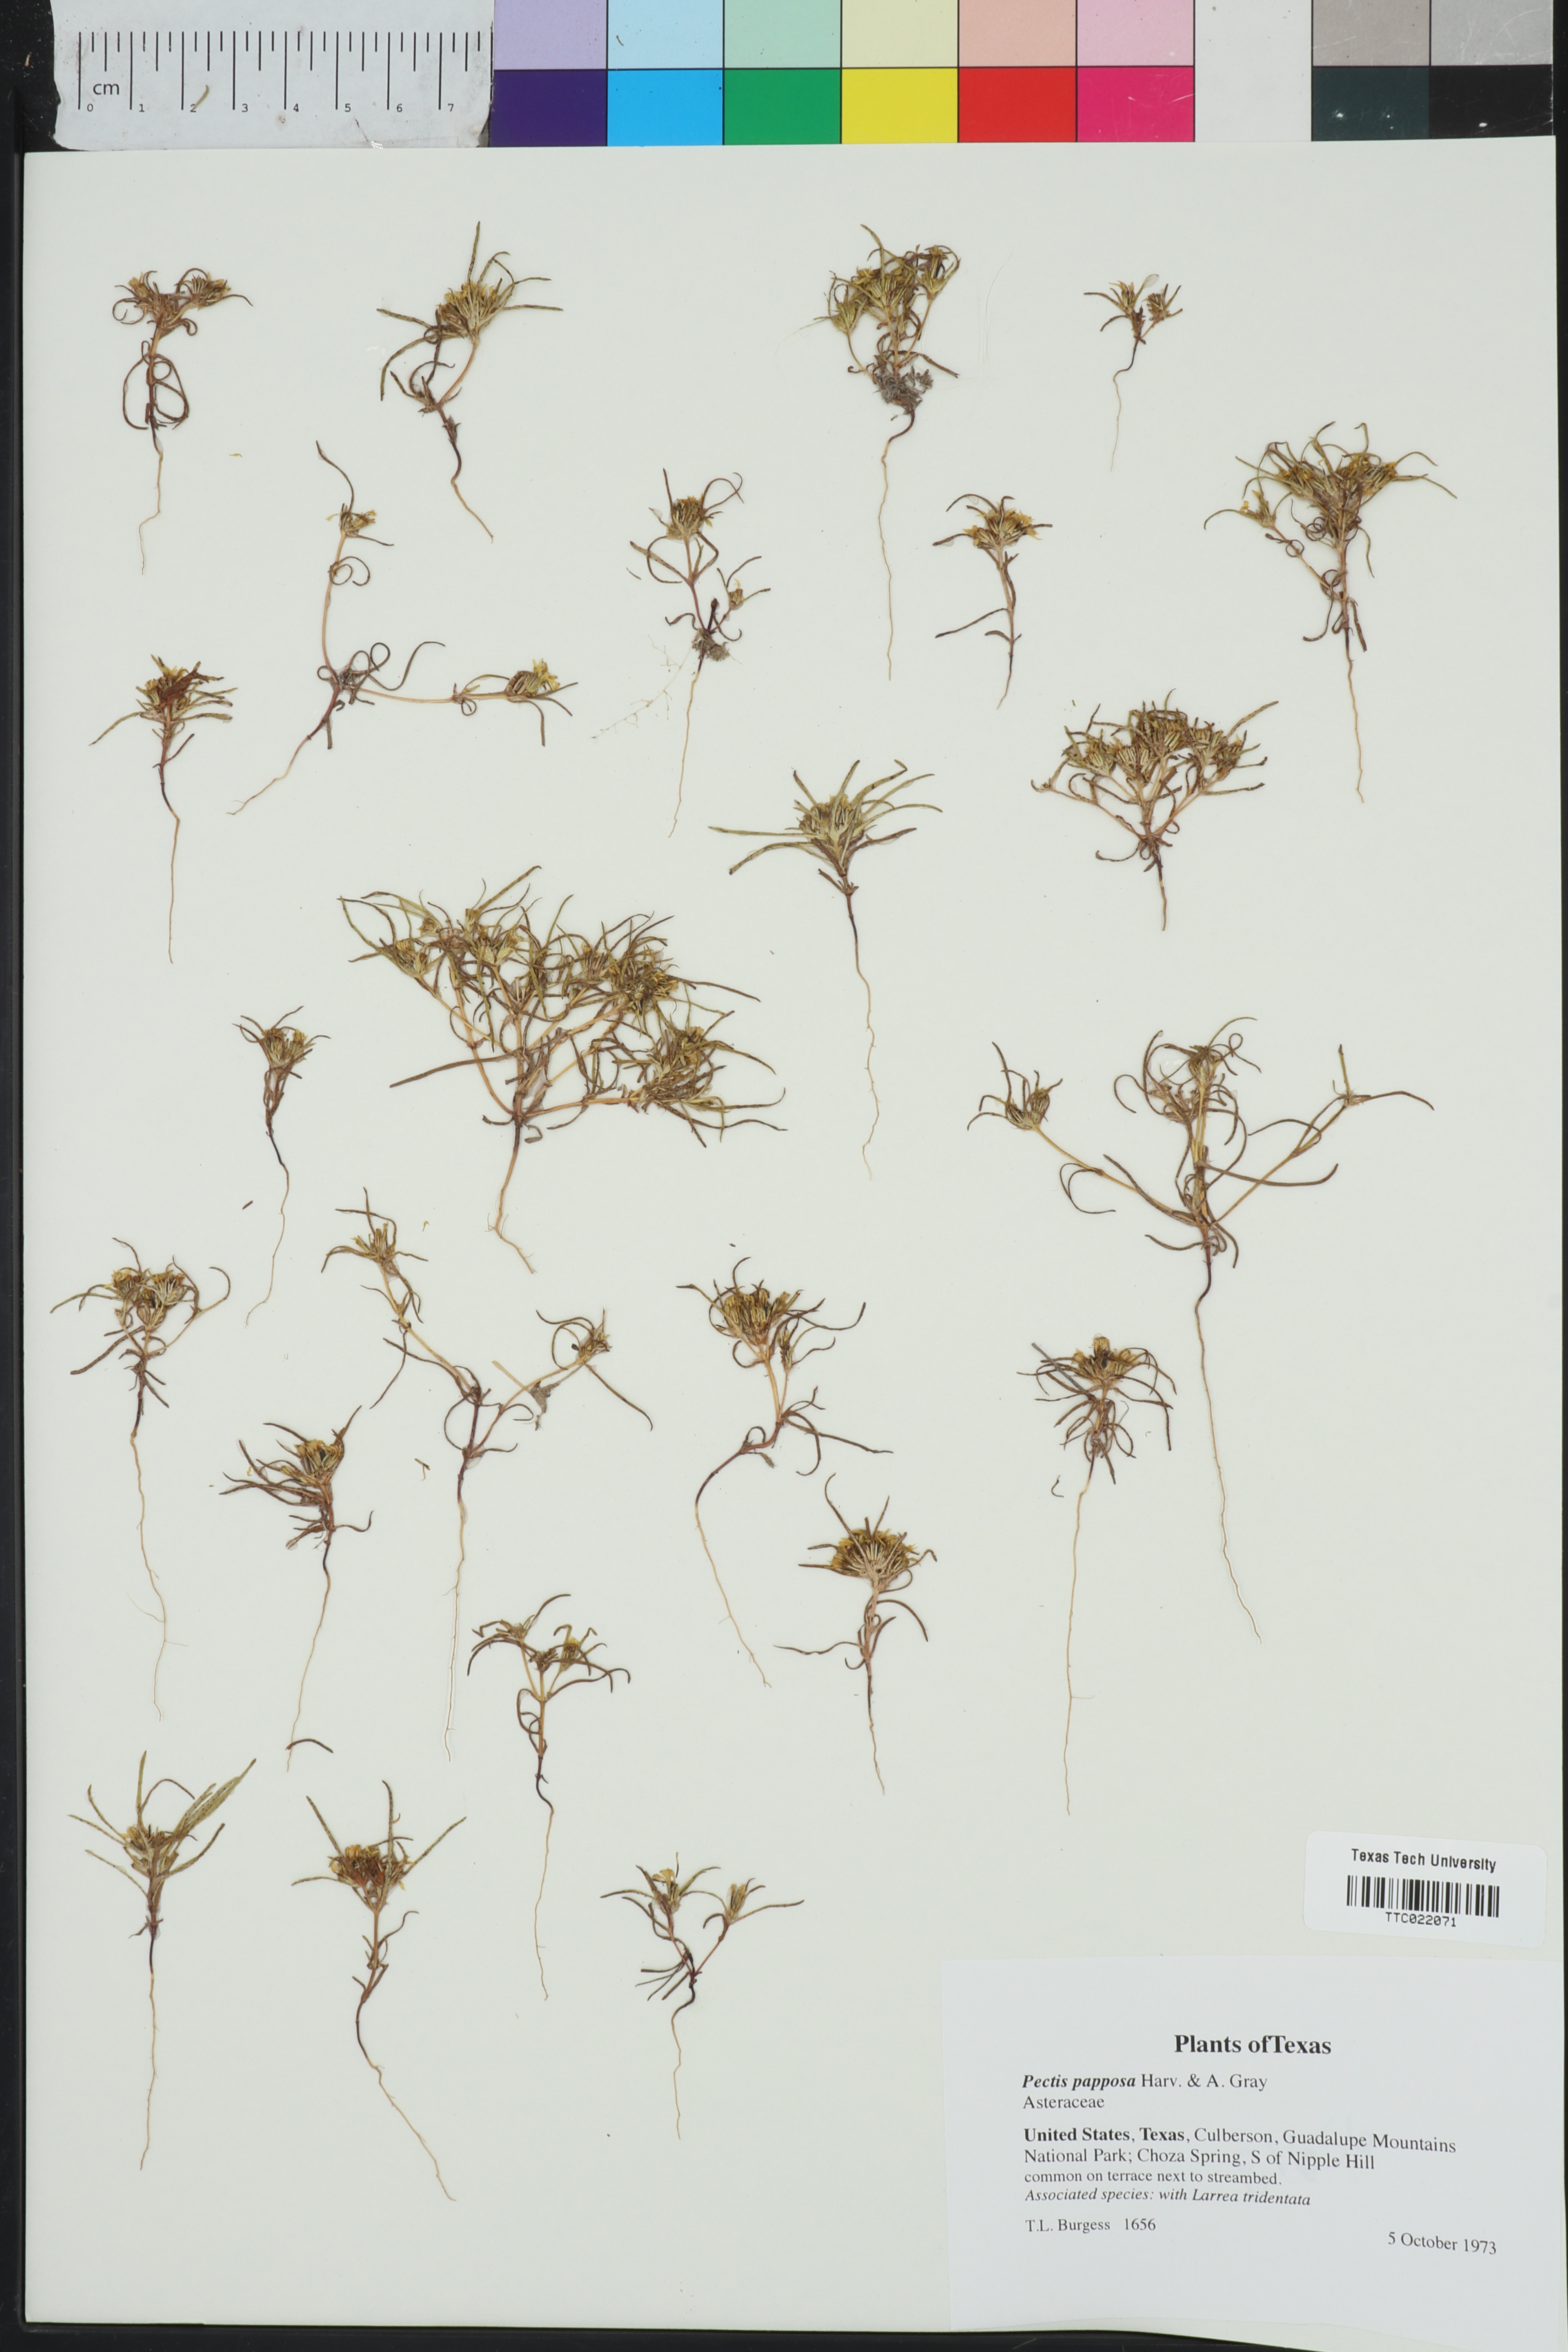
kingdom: Plantae
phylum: Tracheophyta
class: Magnoliopsida
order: Asterales
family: Asteraceae
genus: Pectis
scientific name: Pectis papposa
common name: Many-bristle chinchweed
